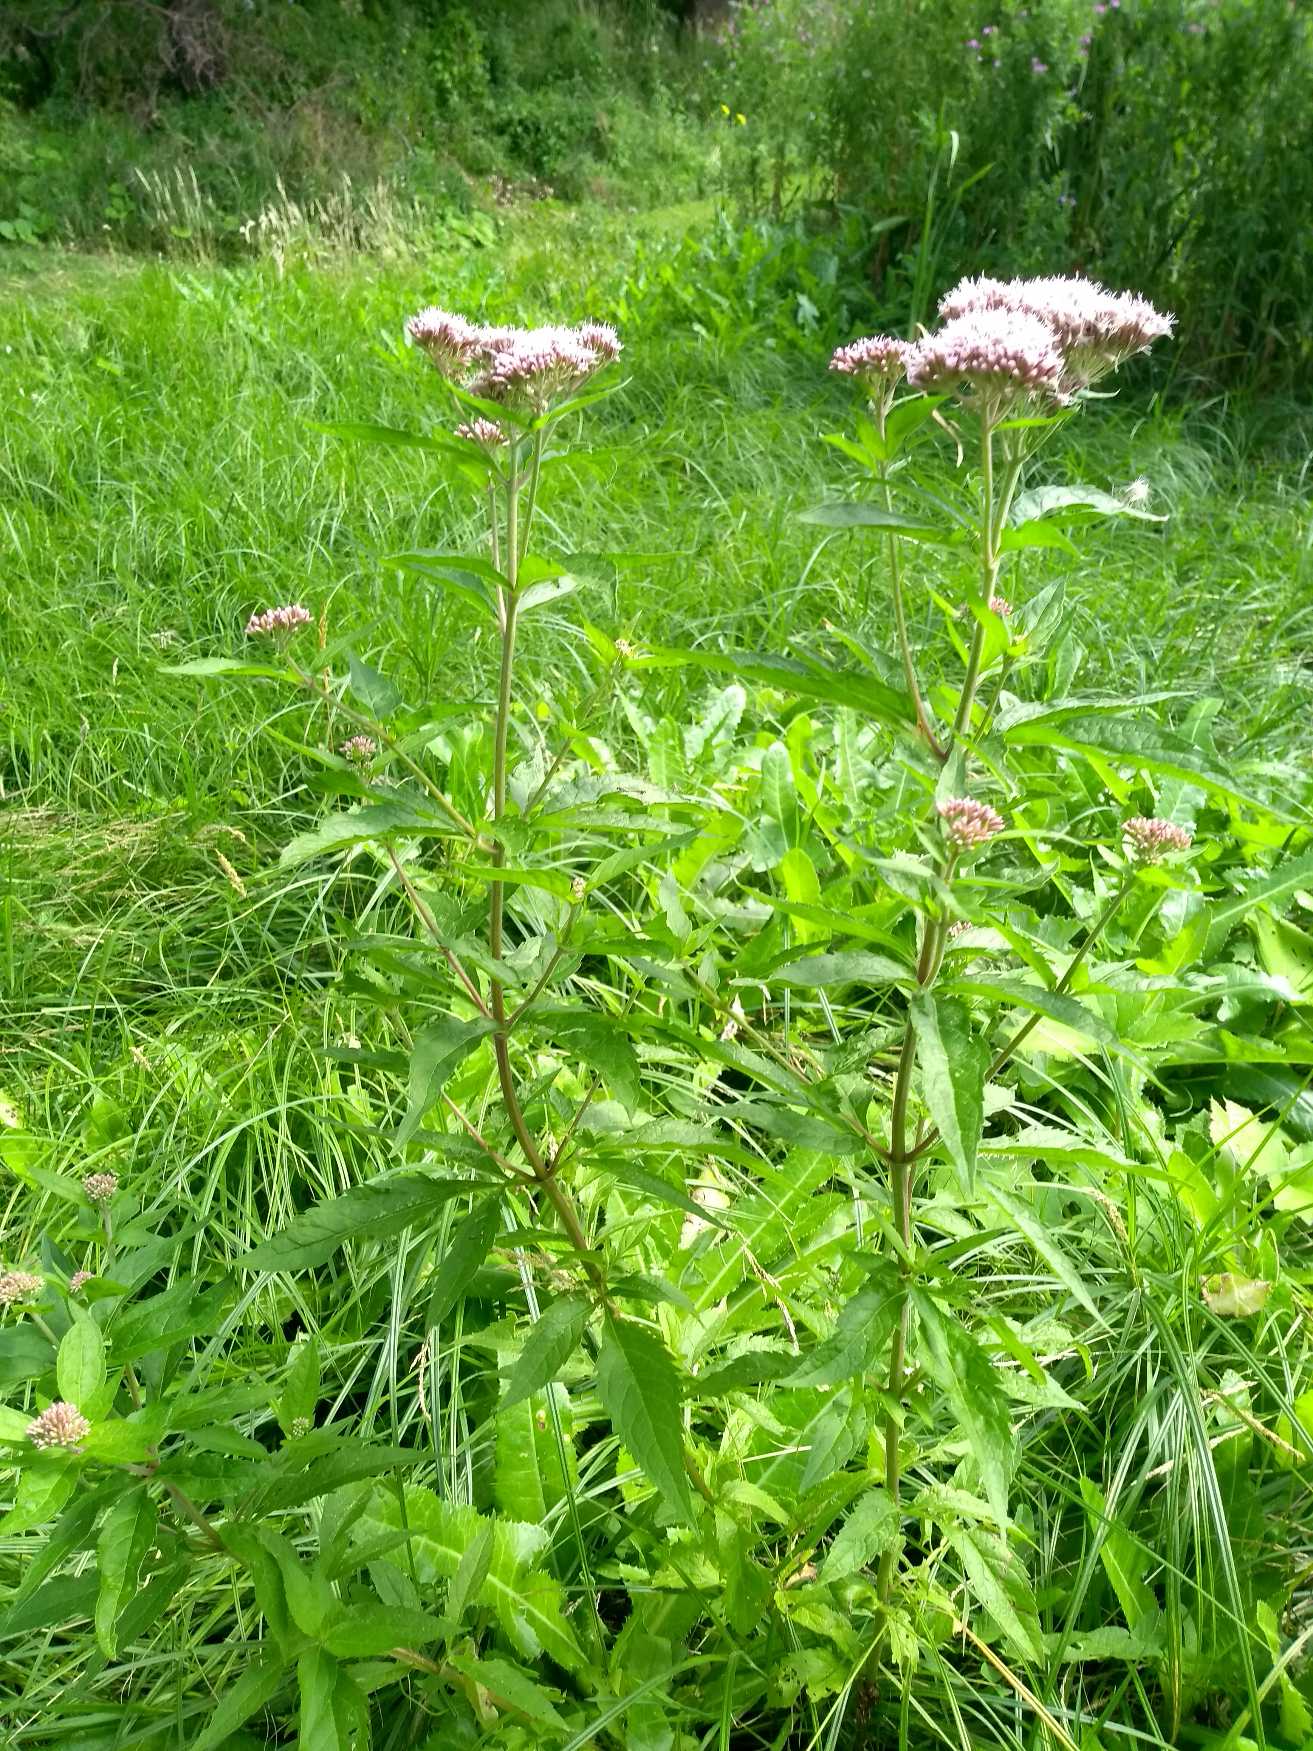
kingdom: Plantae
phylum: Tracheophyta
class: Magnoliopsida
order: Asterales
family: Asteraceae
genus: Eupatorium
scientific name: Eupatorium cannabinum
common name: Hjortetrøst
